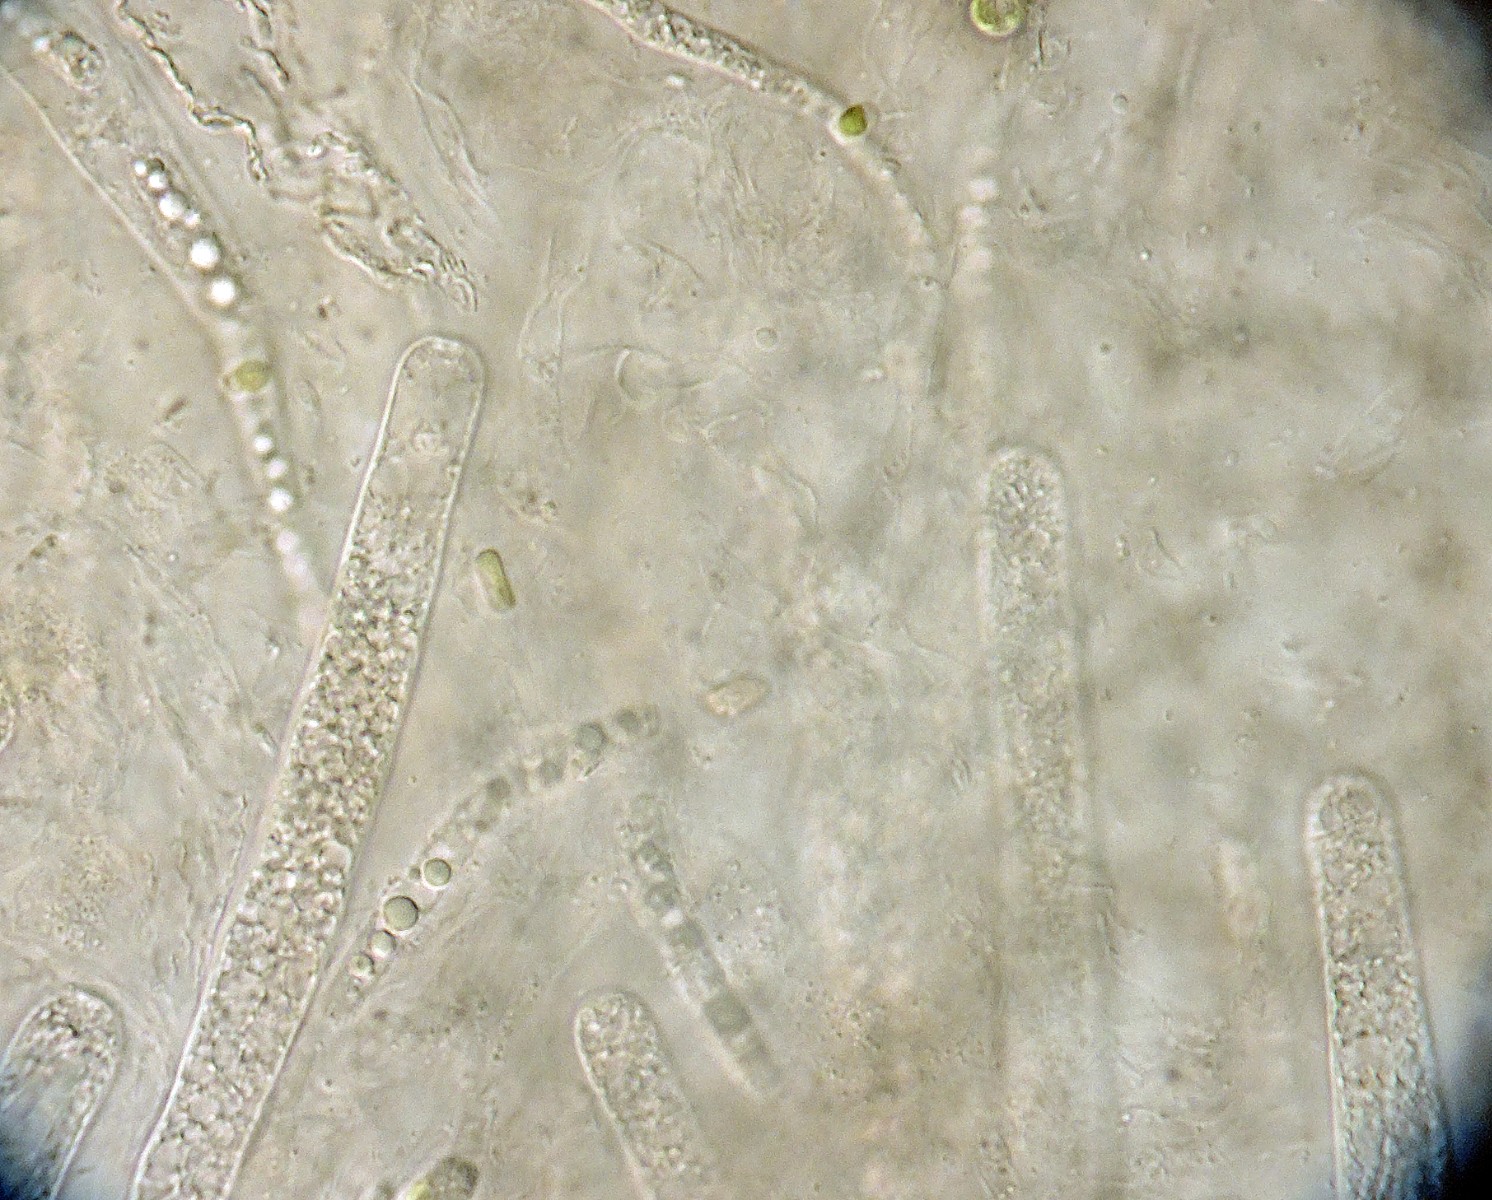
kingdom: Fungi
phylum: Ascomycota
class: Sordariomycetes
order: Sordariales
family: Podosporaceae
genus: Cladorrhinum
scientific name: Cladorrhinum coprophilum
